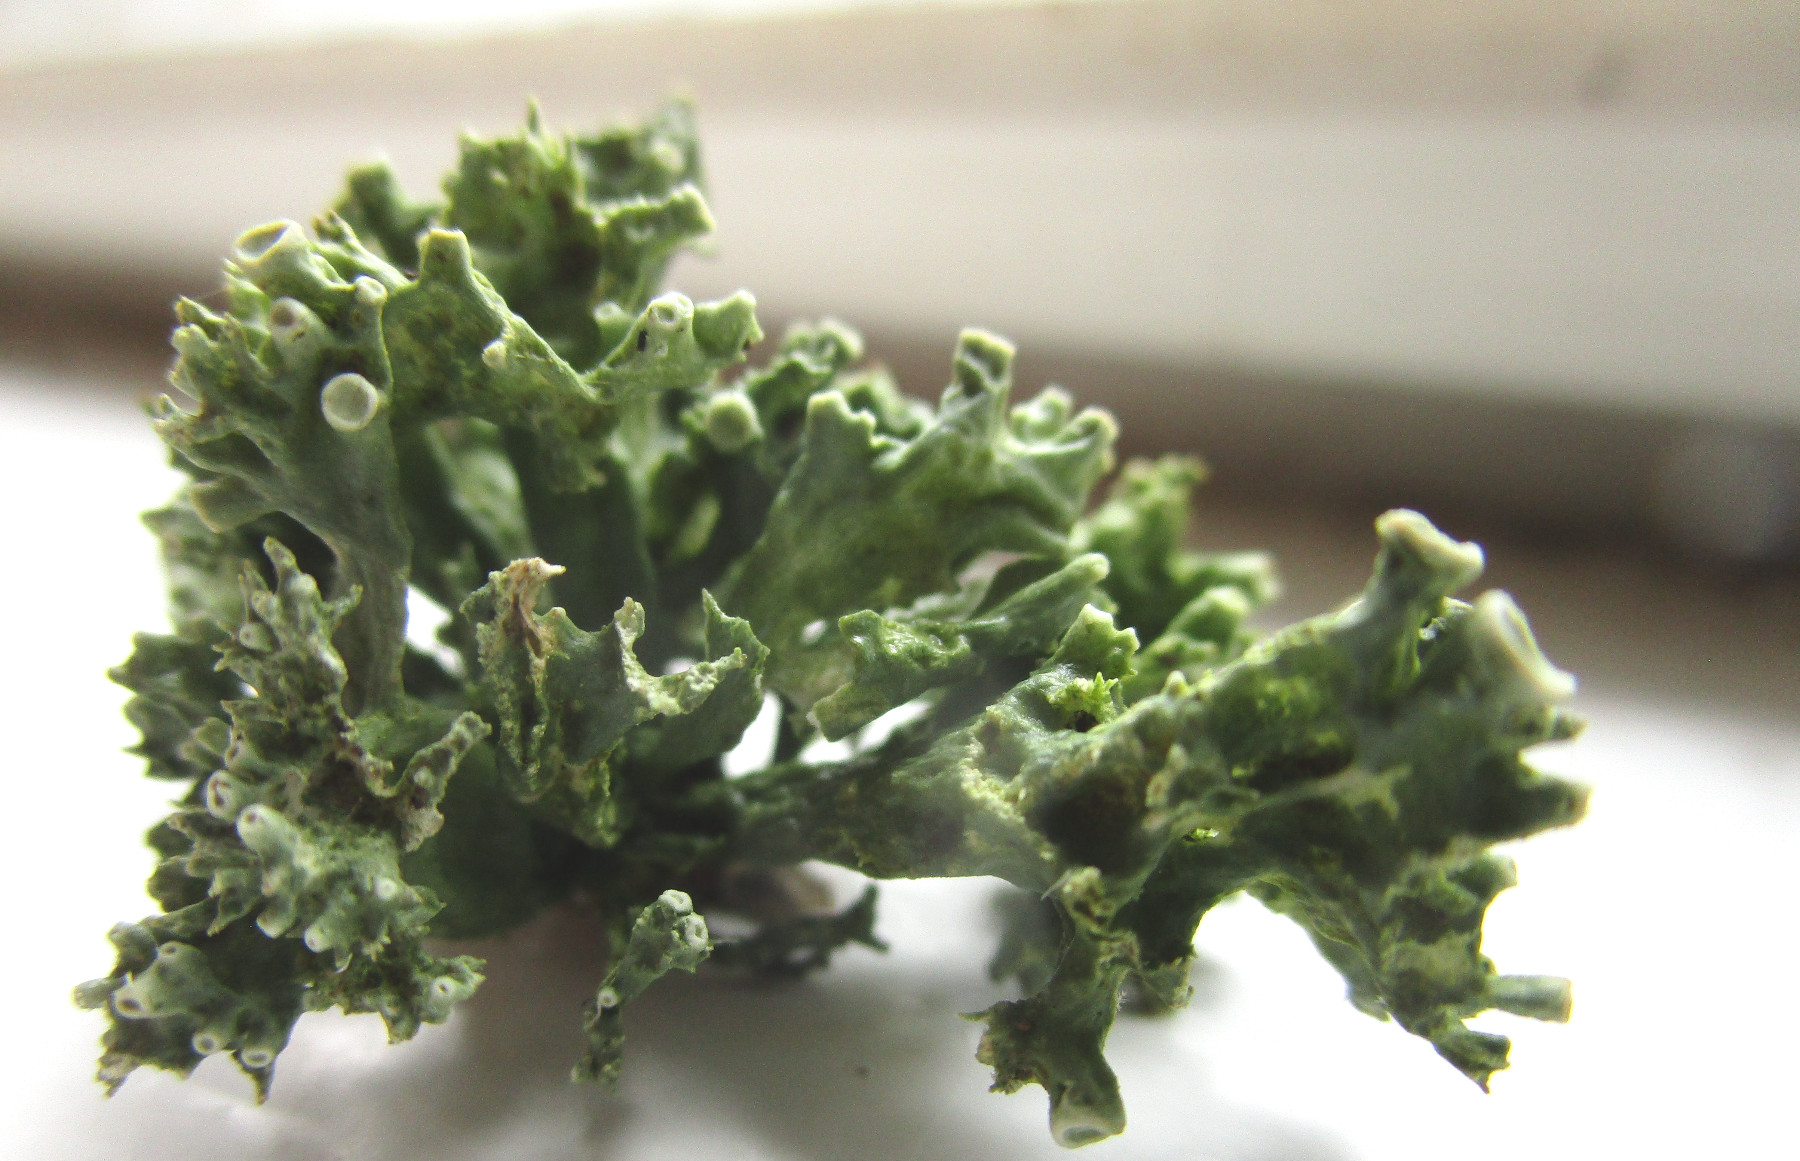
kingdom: Fungi
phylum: Ascomycota
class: Lecanoromycetes
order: Lecanorales
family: Ramalinaceae
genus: Ramalina
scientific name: Ramalina fastigiata
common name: tue-grenlav
